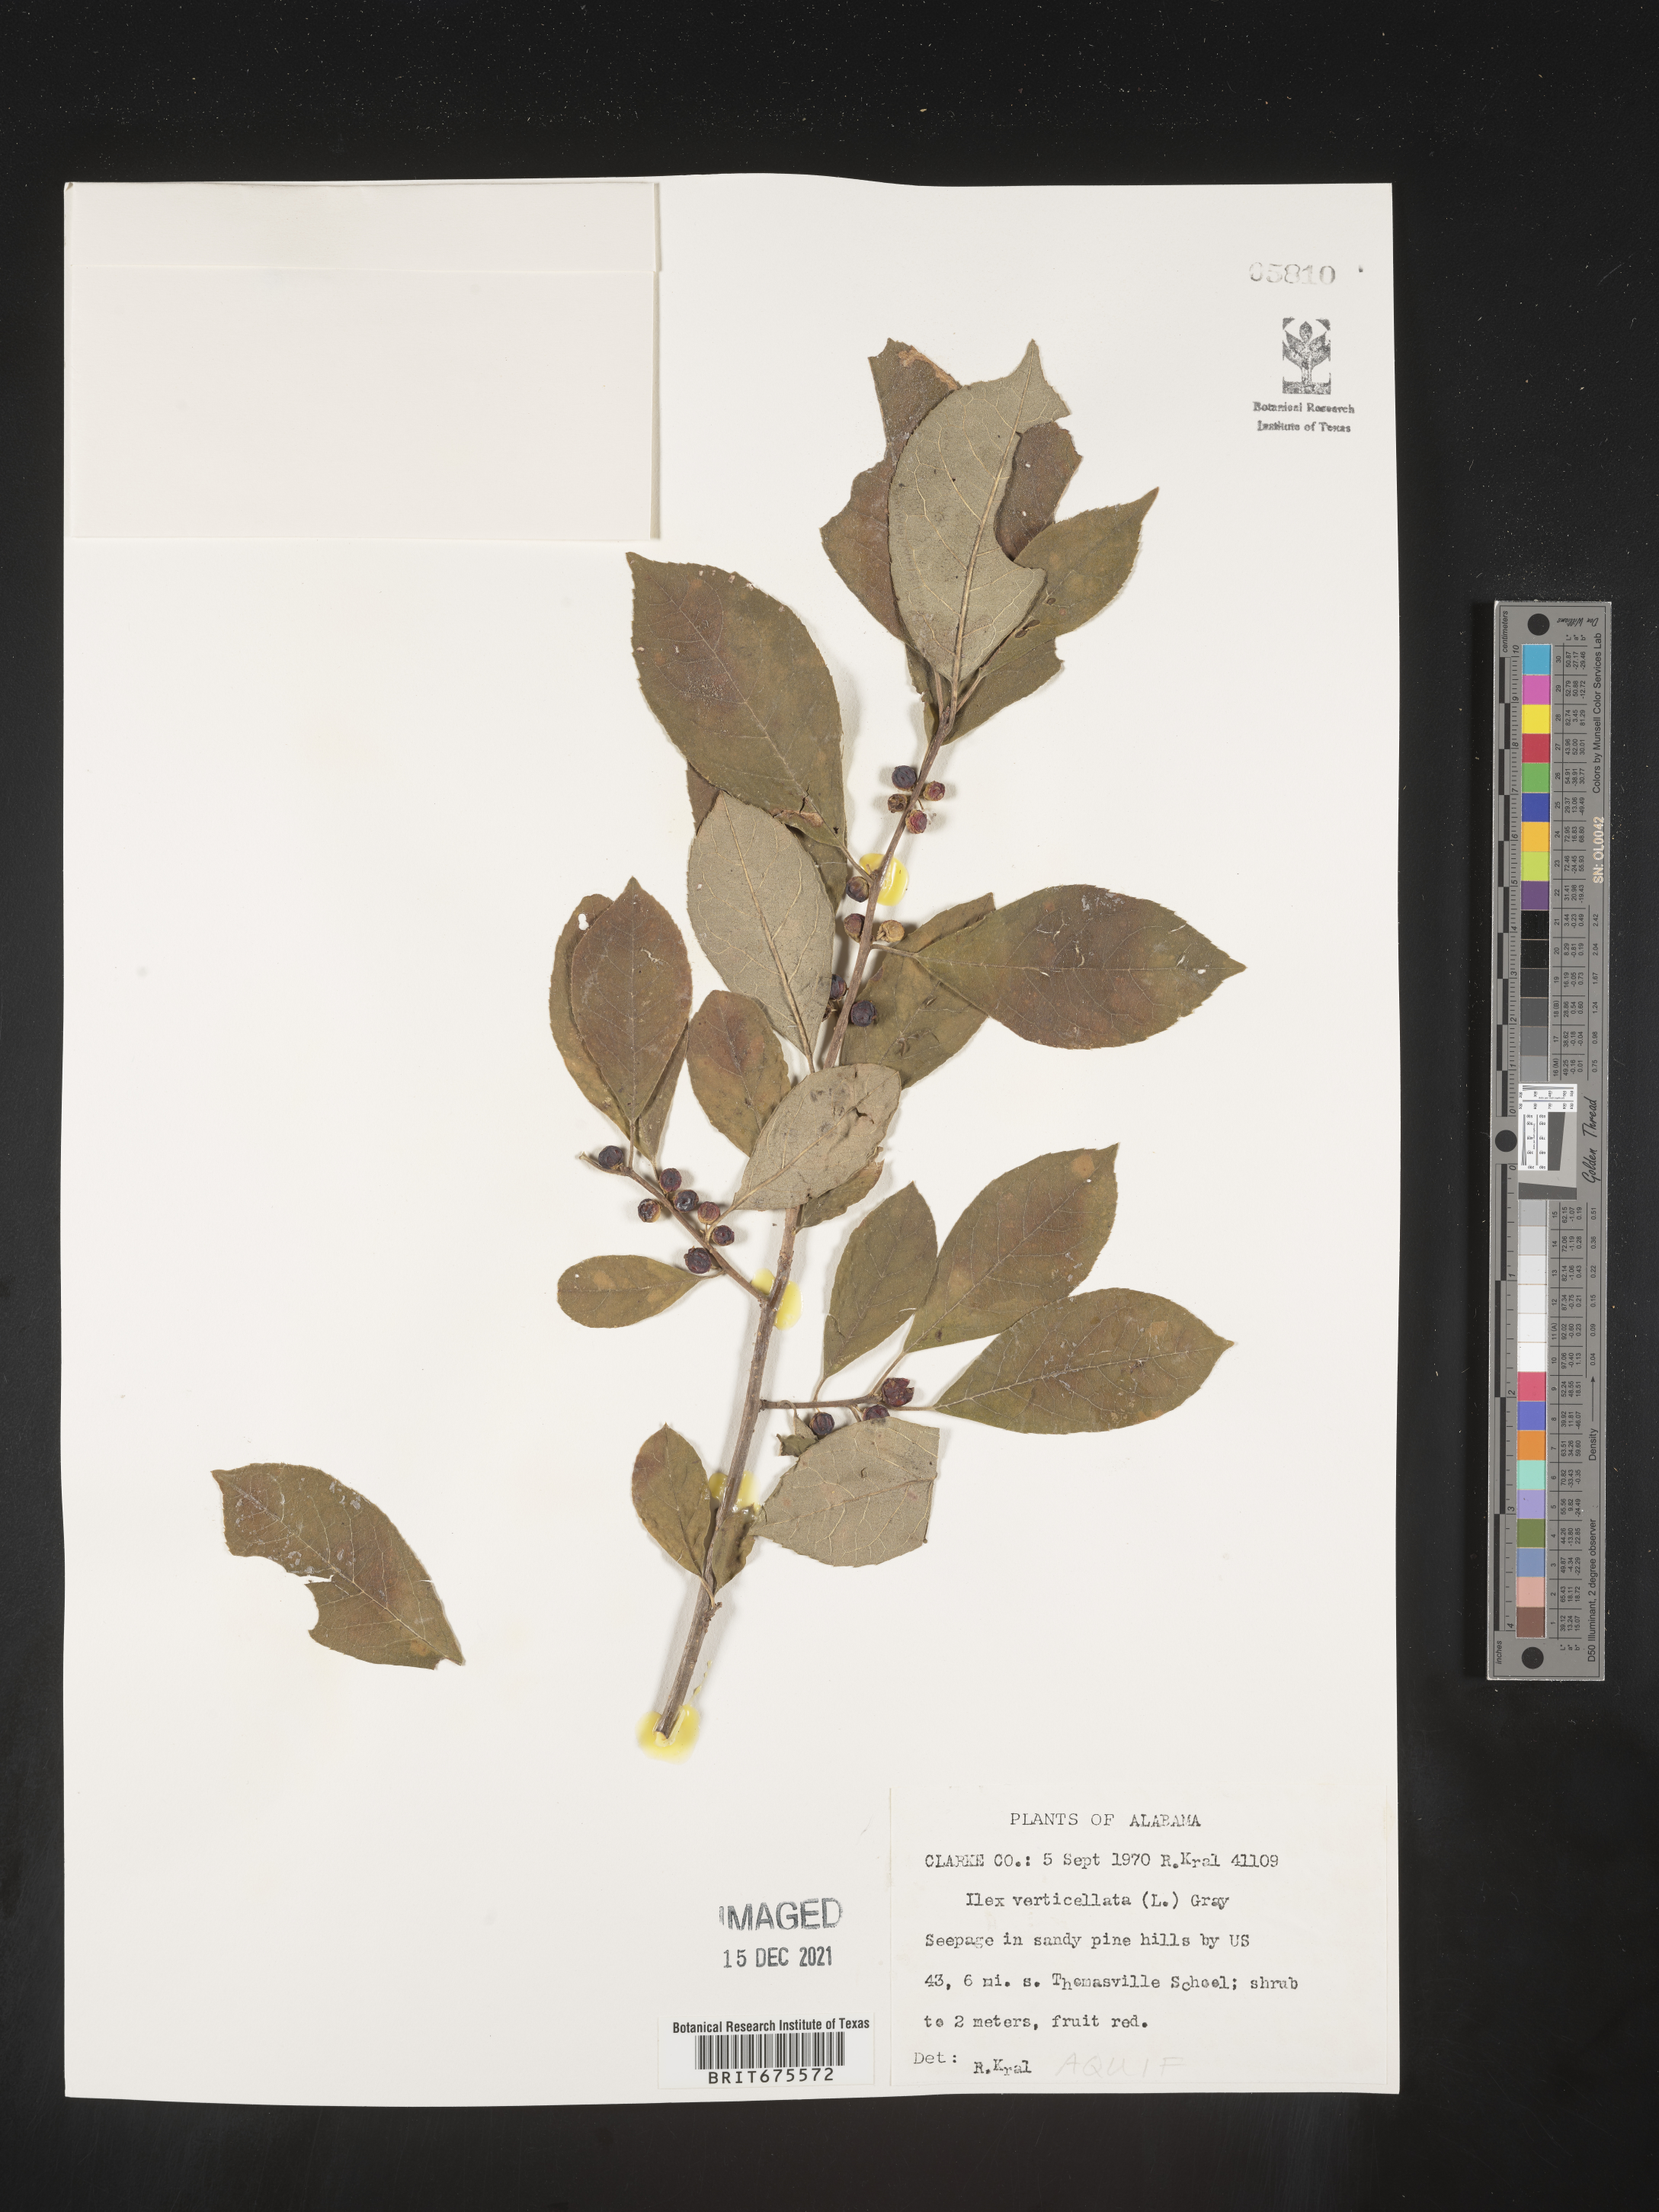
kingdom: Plantae
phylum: Tracheophyta
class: Magnoliopsida
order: Aquifoliales
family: Aquifoliaceae
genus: Ilex
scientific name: Ilex verticillata
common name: Virginia winterberry
